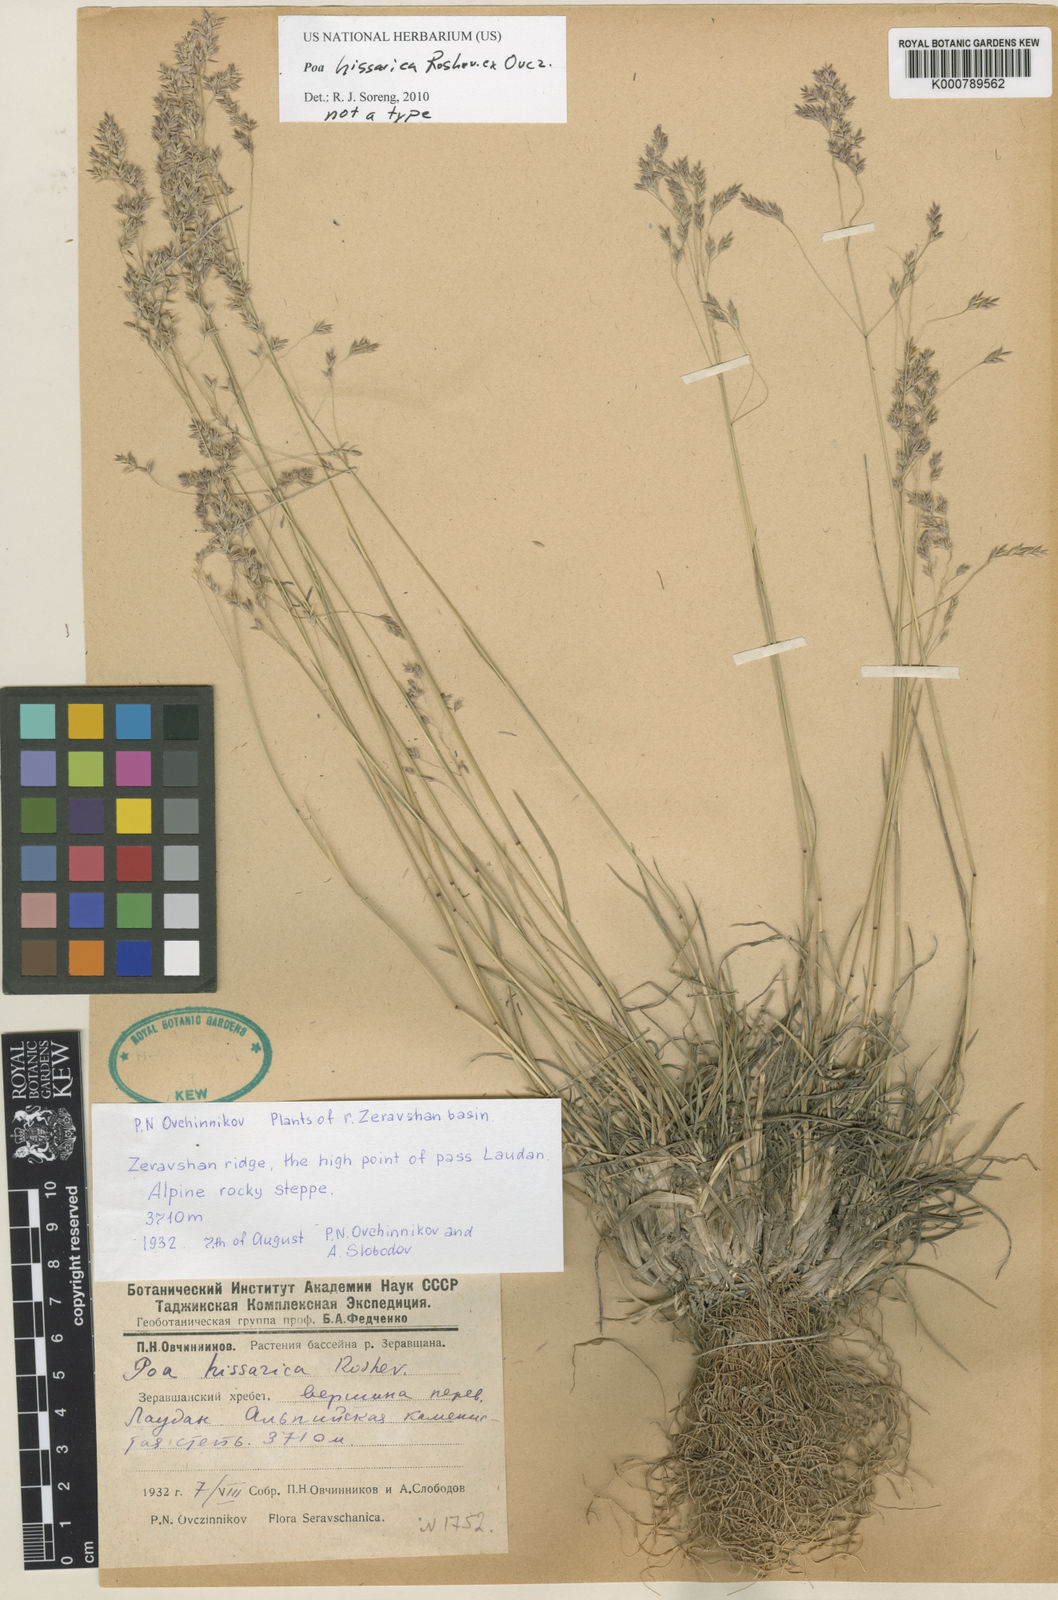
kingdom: Plantae
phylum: Tracheophyta
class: Liliopsida
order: Poales
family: Poaceae
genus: Poa
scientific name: Poa
